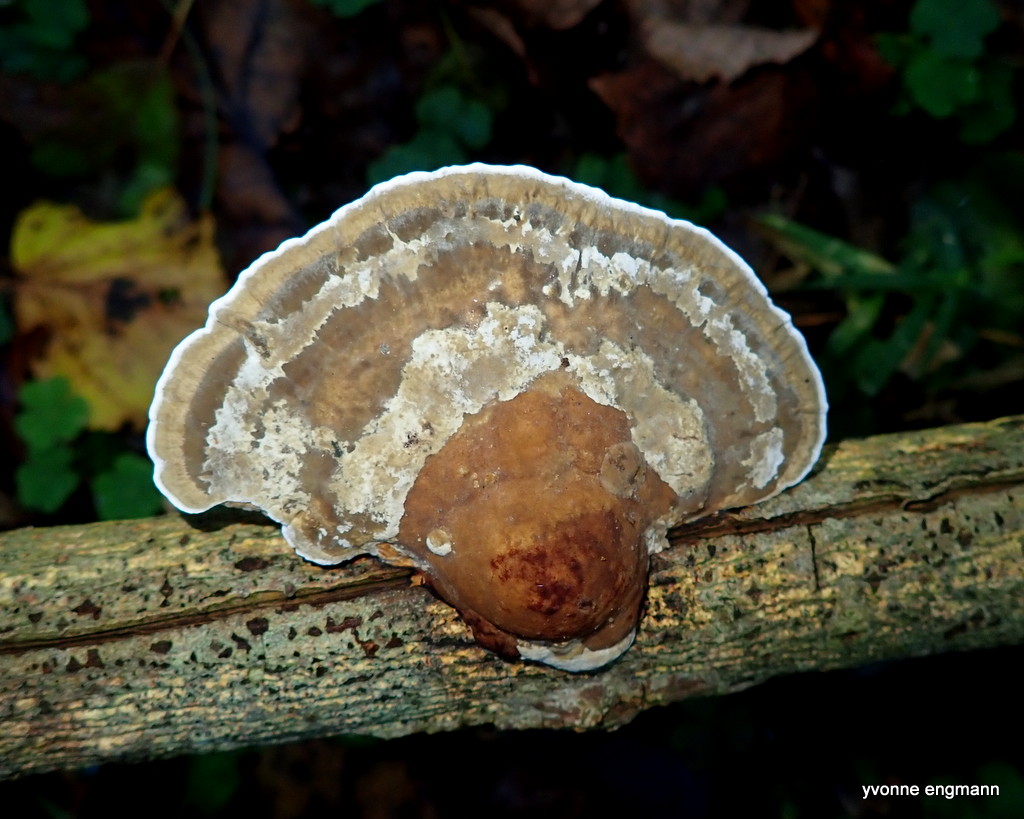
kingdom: Fungi
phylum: Basidiomycota
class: Agaricomycetes
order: Polyporales
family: Polyporaceae
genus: Daedaleopsis
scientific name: Daedaleopsis confragosa
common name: rødmende læderporesvamp
